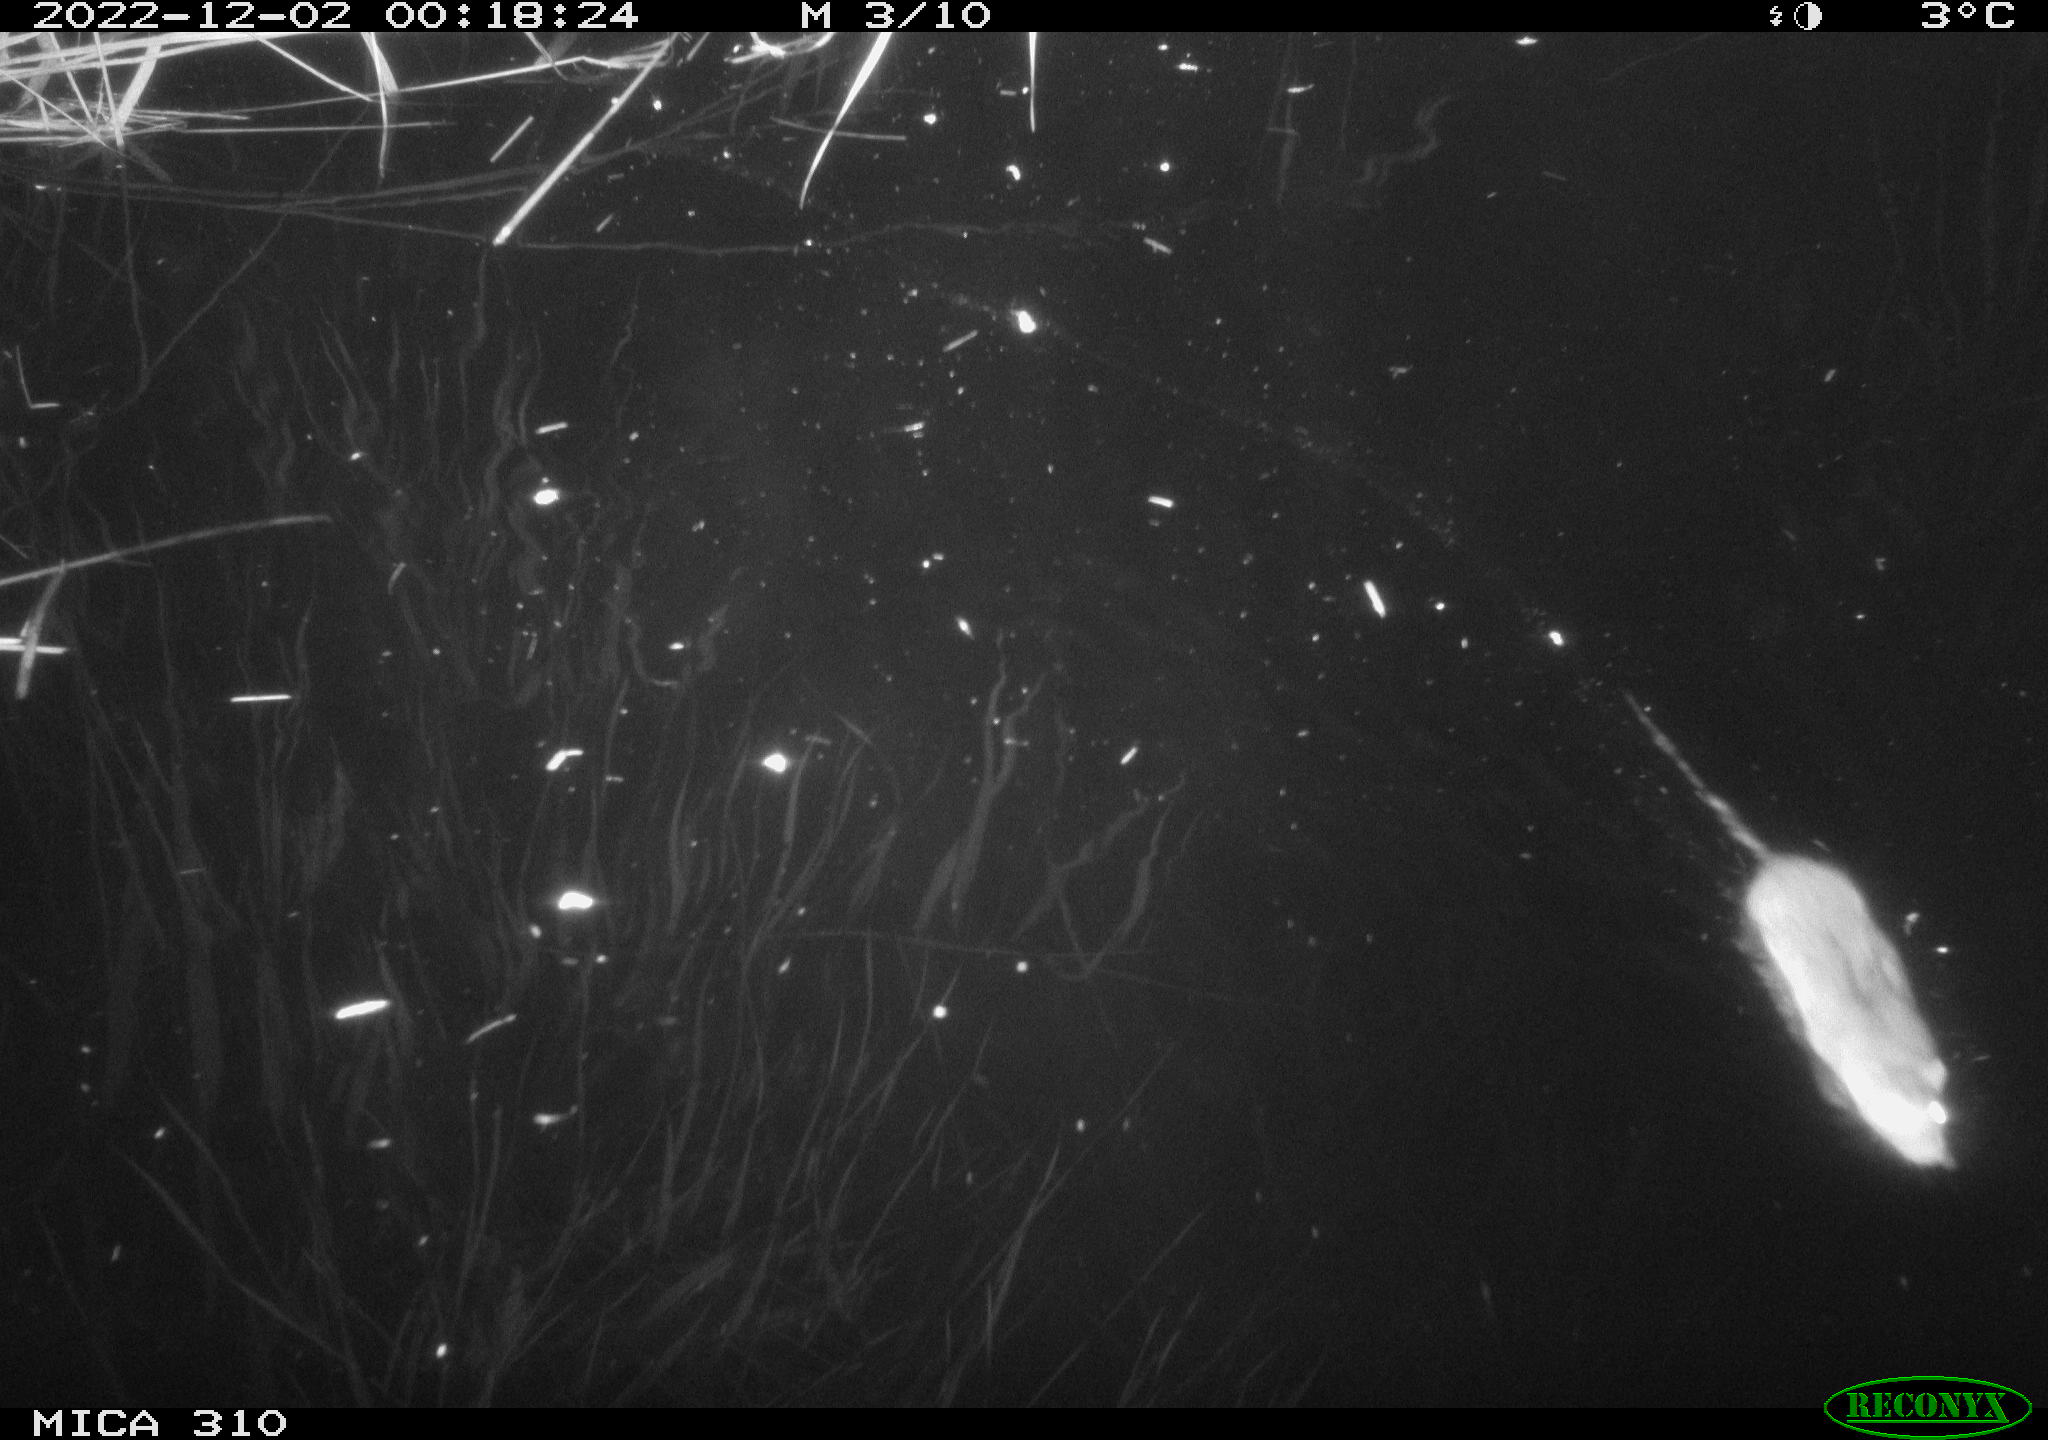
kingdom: Animalia
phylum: Chordata
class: Mammalia
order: Rodentia
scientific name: Rodentia
